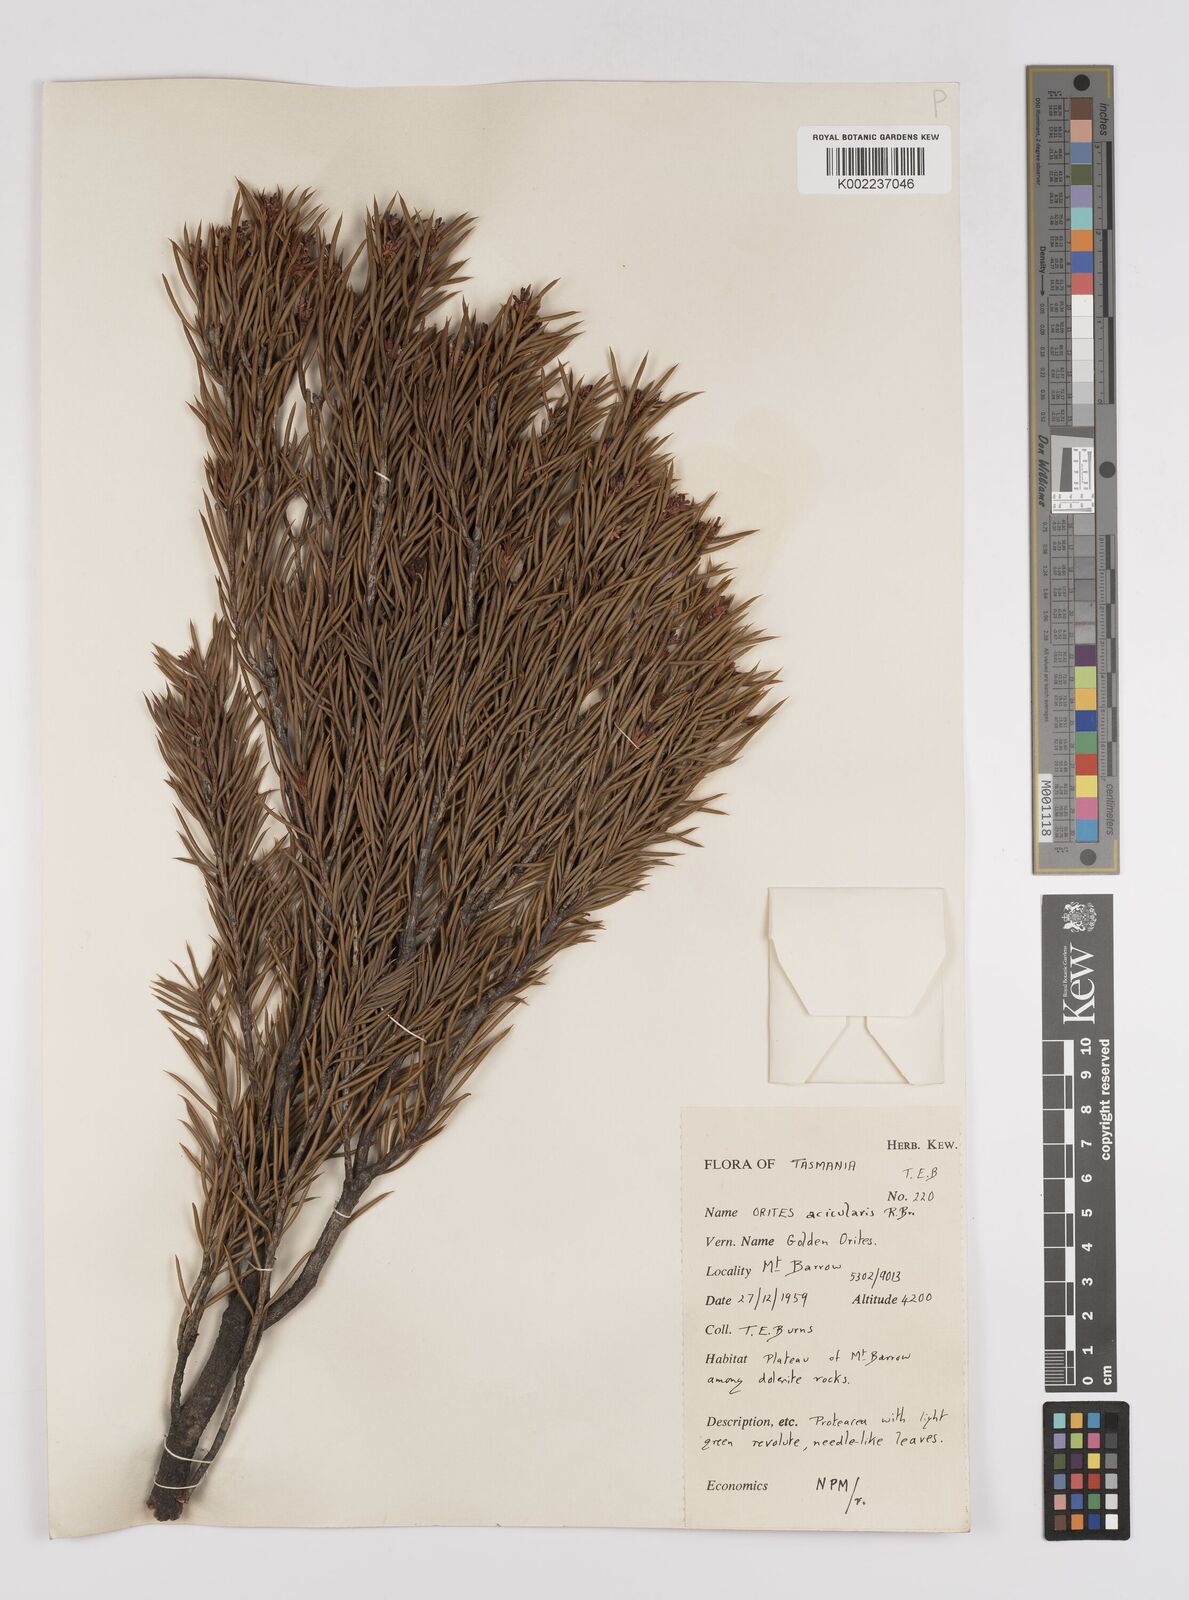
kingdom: Plantae
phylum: Tracheophyta
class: Magnoliopsida
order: Proteales
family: Proteaceae
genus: Orites
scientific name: Orites acicularis
